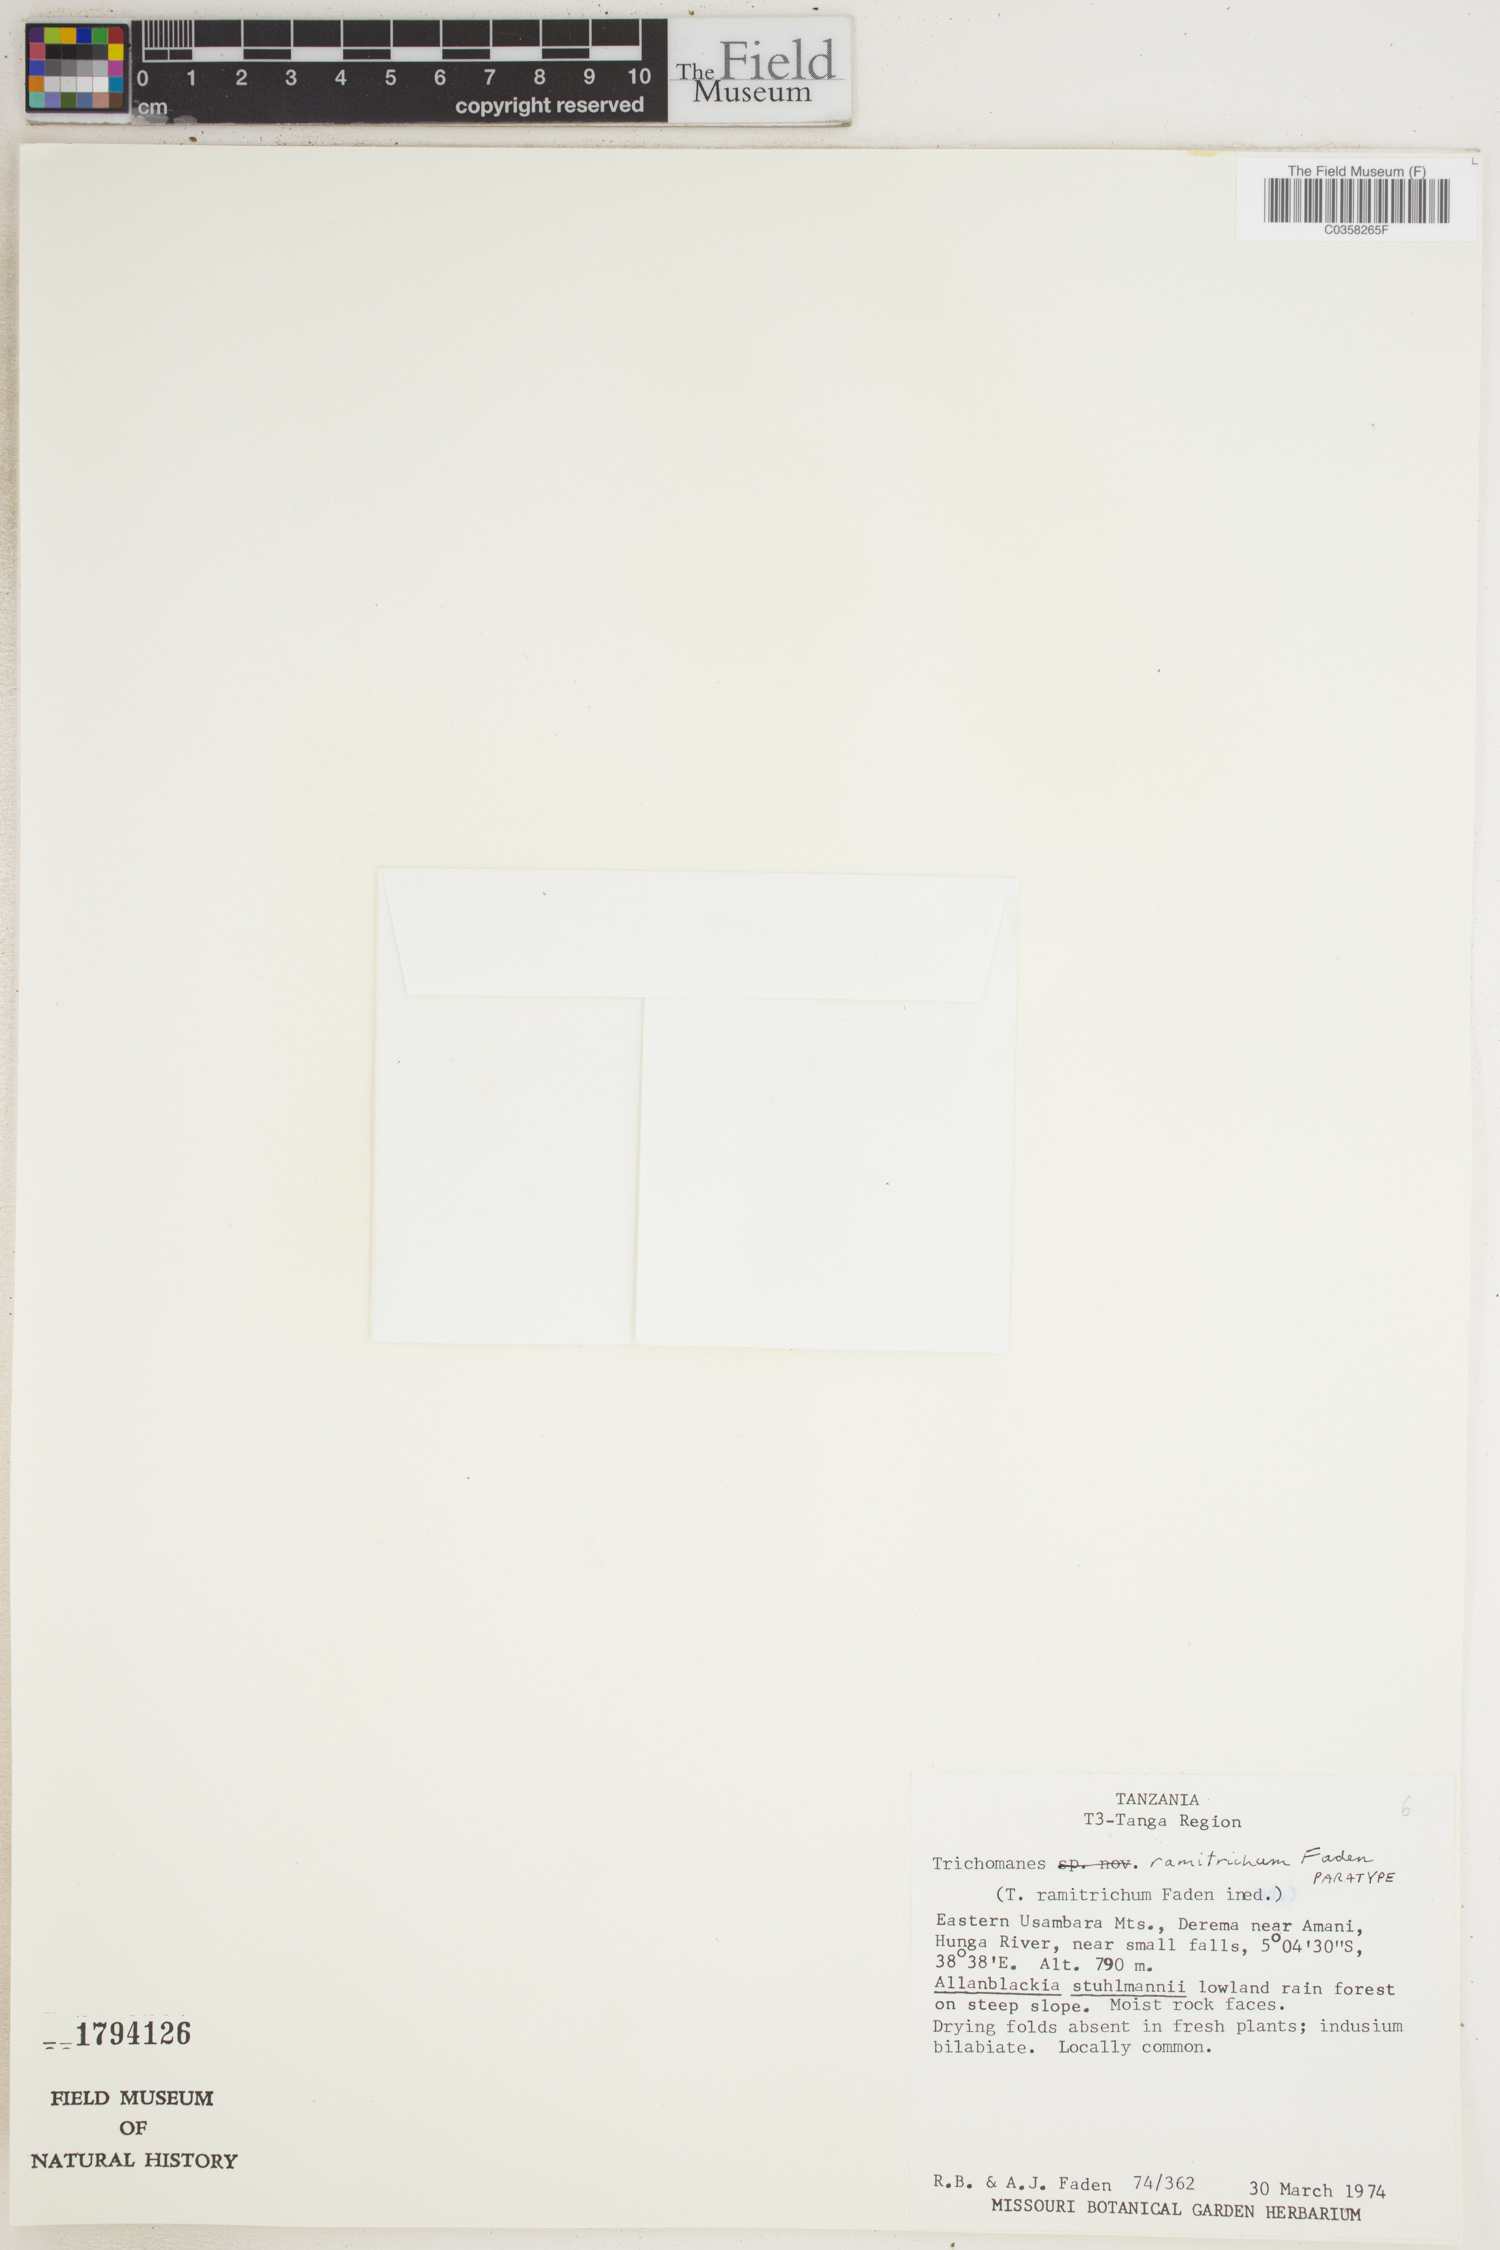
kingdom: Plantae
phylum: Tracheophyta
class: Polypodiopsida
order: Hymenophyllales
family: Hymenophyllaceae
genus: Crepidomanes
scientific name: Crepidomanes ramitrichum
